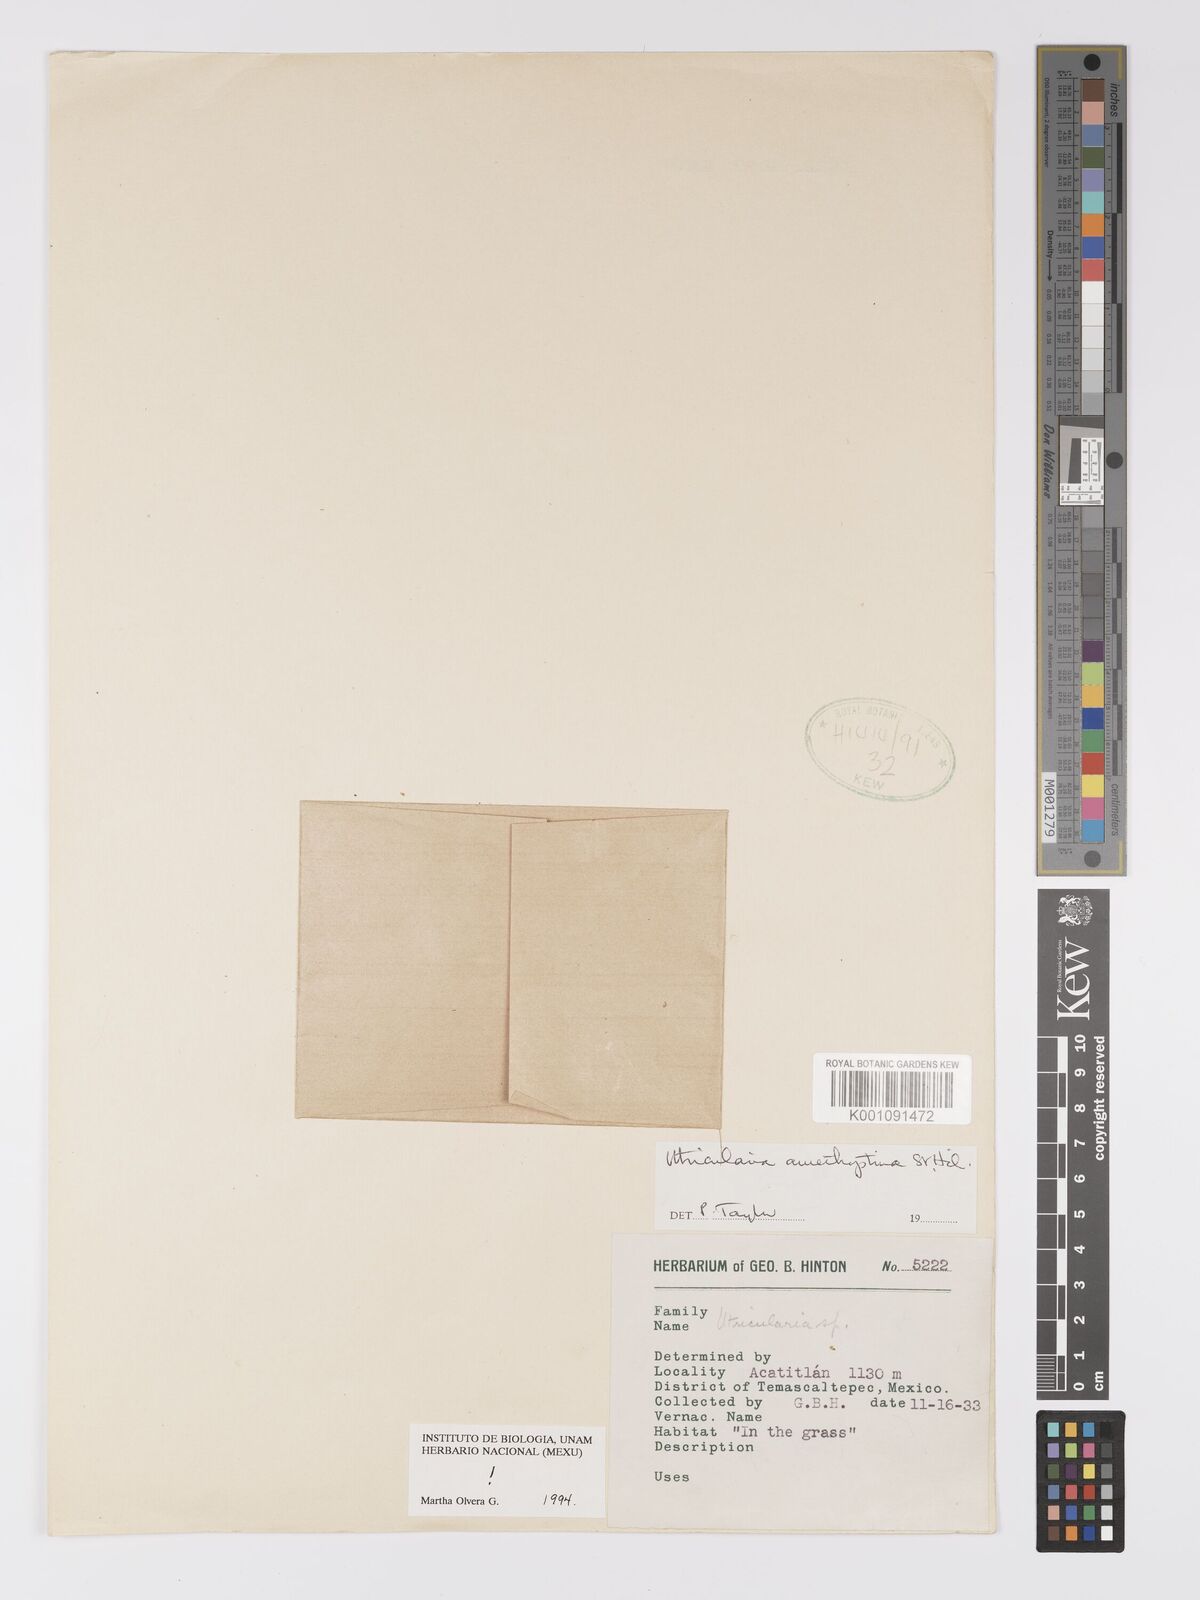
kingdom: Plantae
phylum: Tracheophyta
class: Magnoliopsida
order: Lamiales
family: Lentibulariaceae
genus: Utricularia
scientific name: Utricularia amethystina
